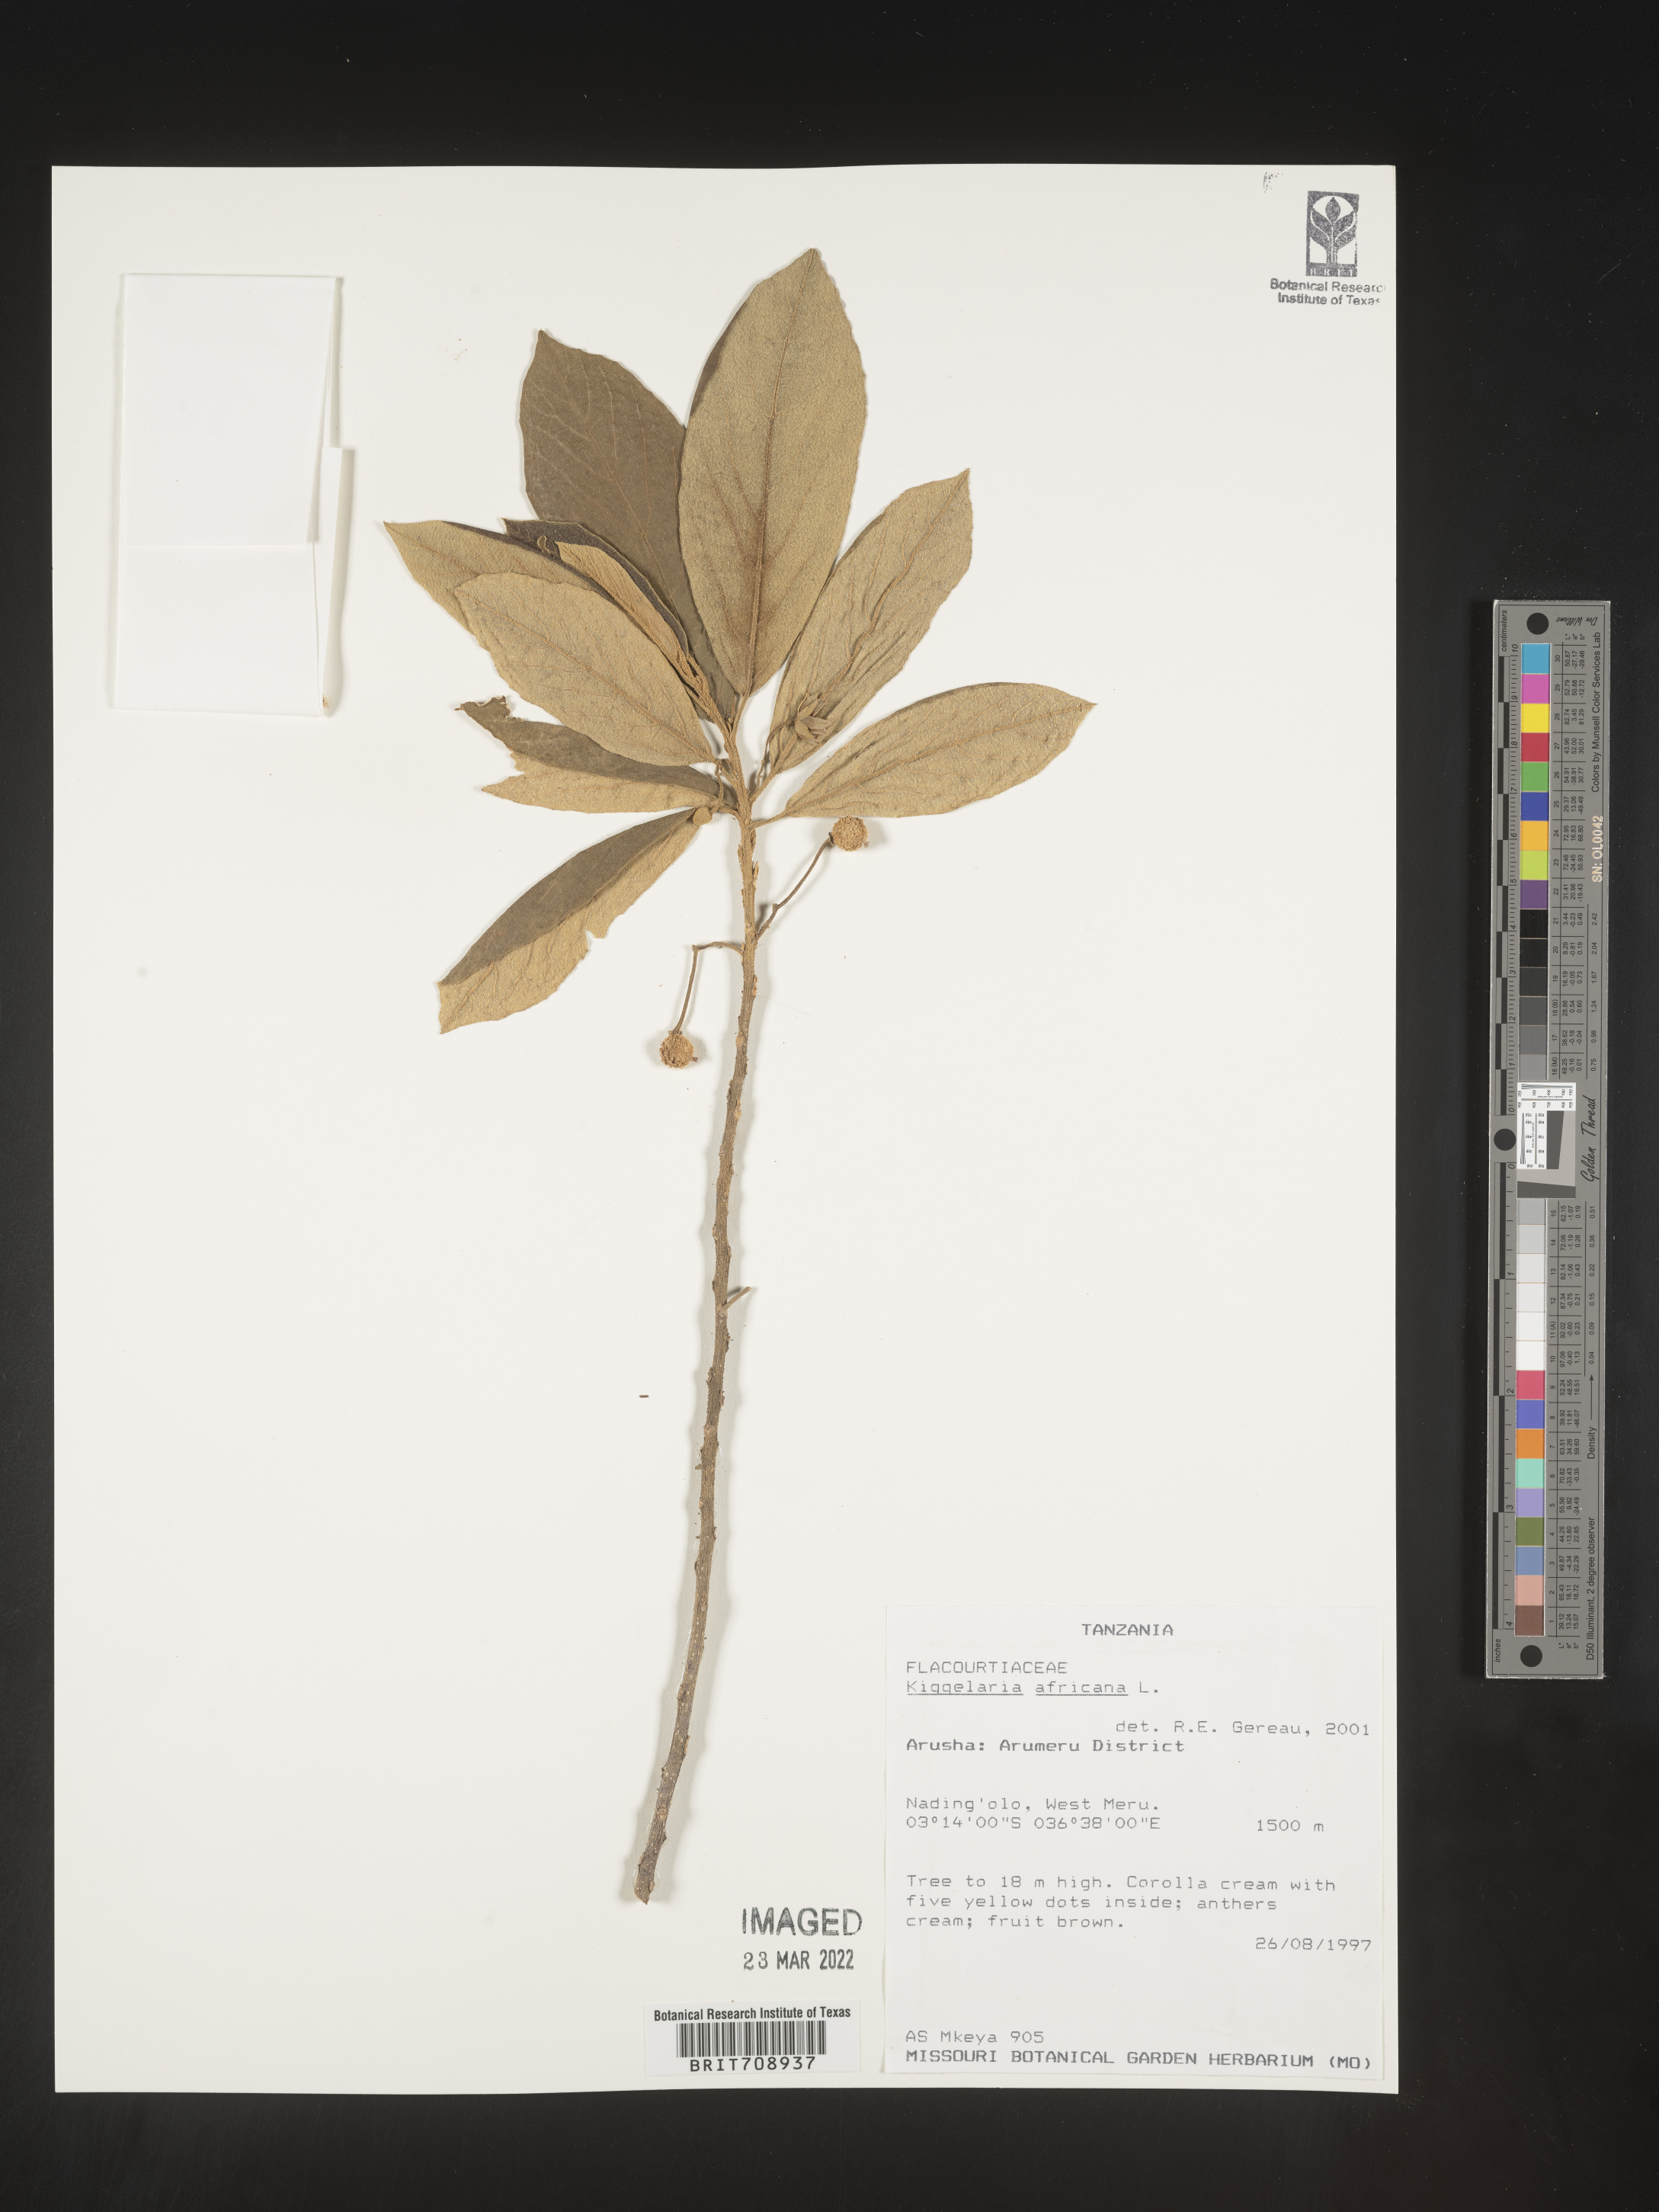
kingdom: Plantae
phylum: Tracheophyta
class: Magnoliopsida
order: Malpighiales
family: Achariaceae
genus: Kiggelaria
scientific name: Kiggelaria
